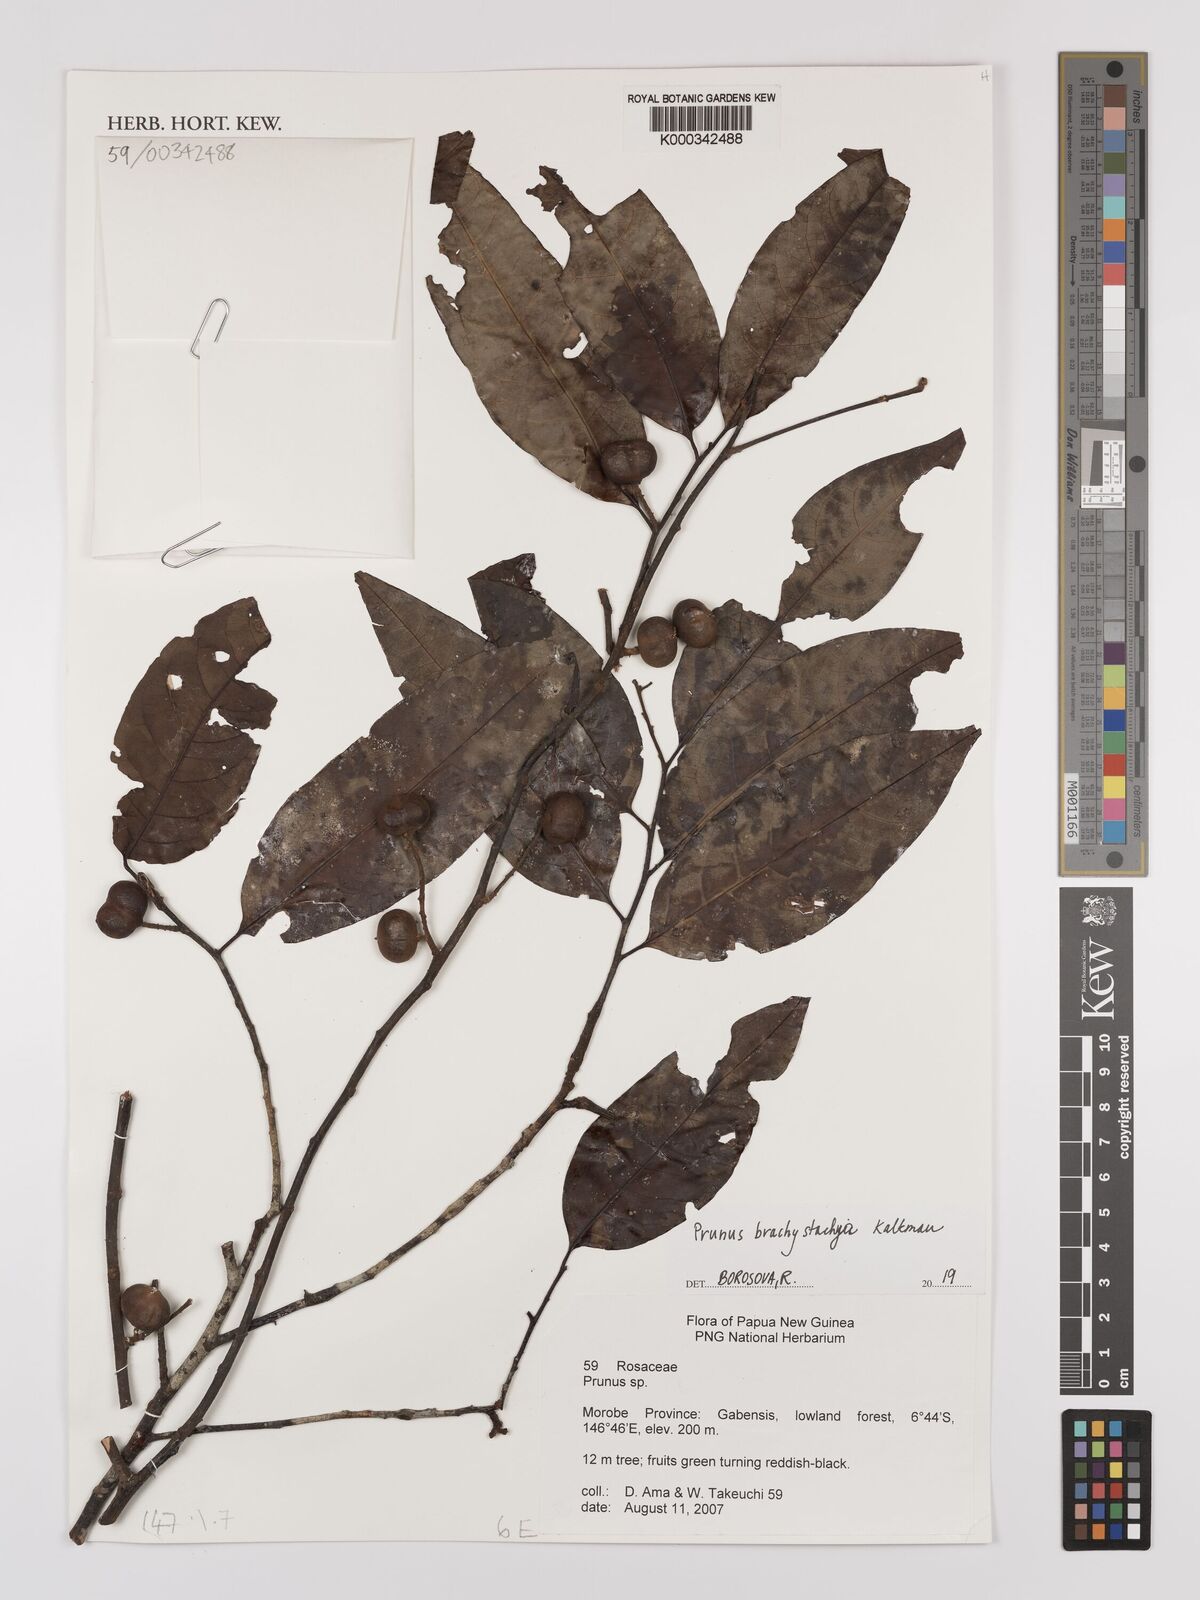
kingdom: Plantae
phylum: Tracheophyta
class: Magnoliopsida
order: Rosales
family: Rosaceae
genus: Prunus
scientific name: Prunus brachystachya
